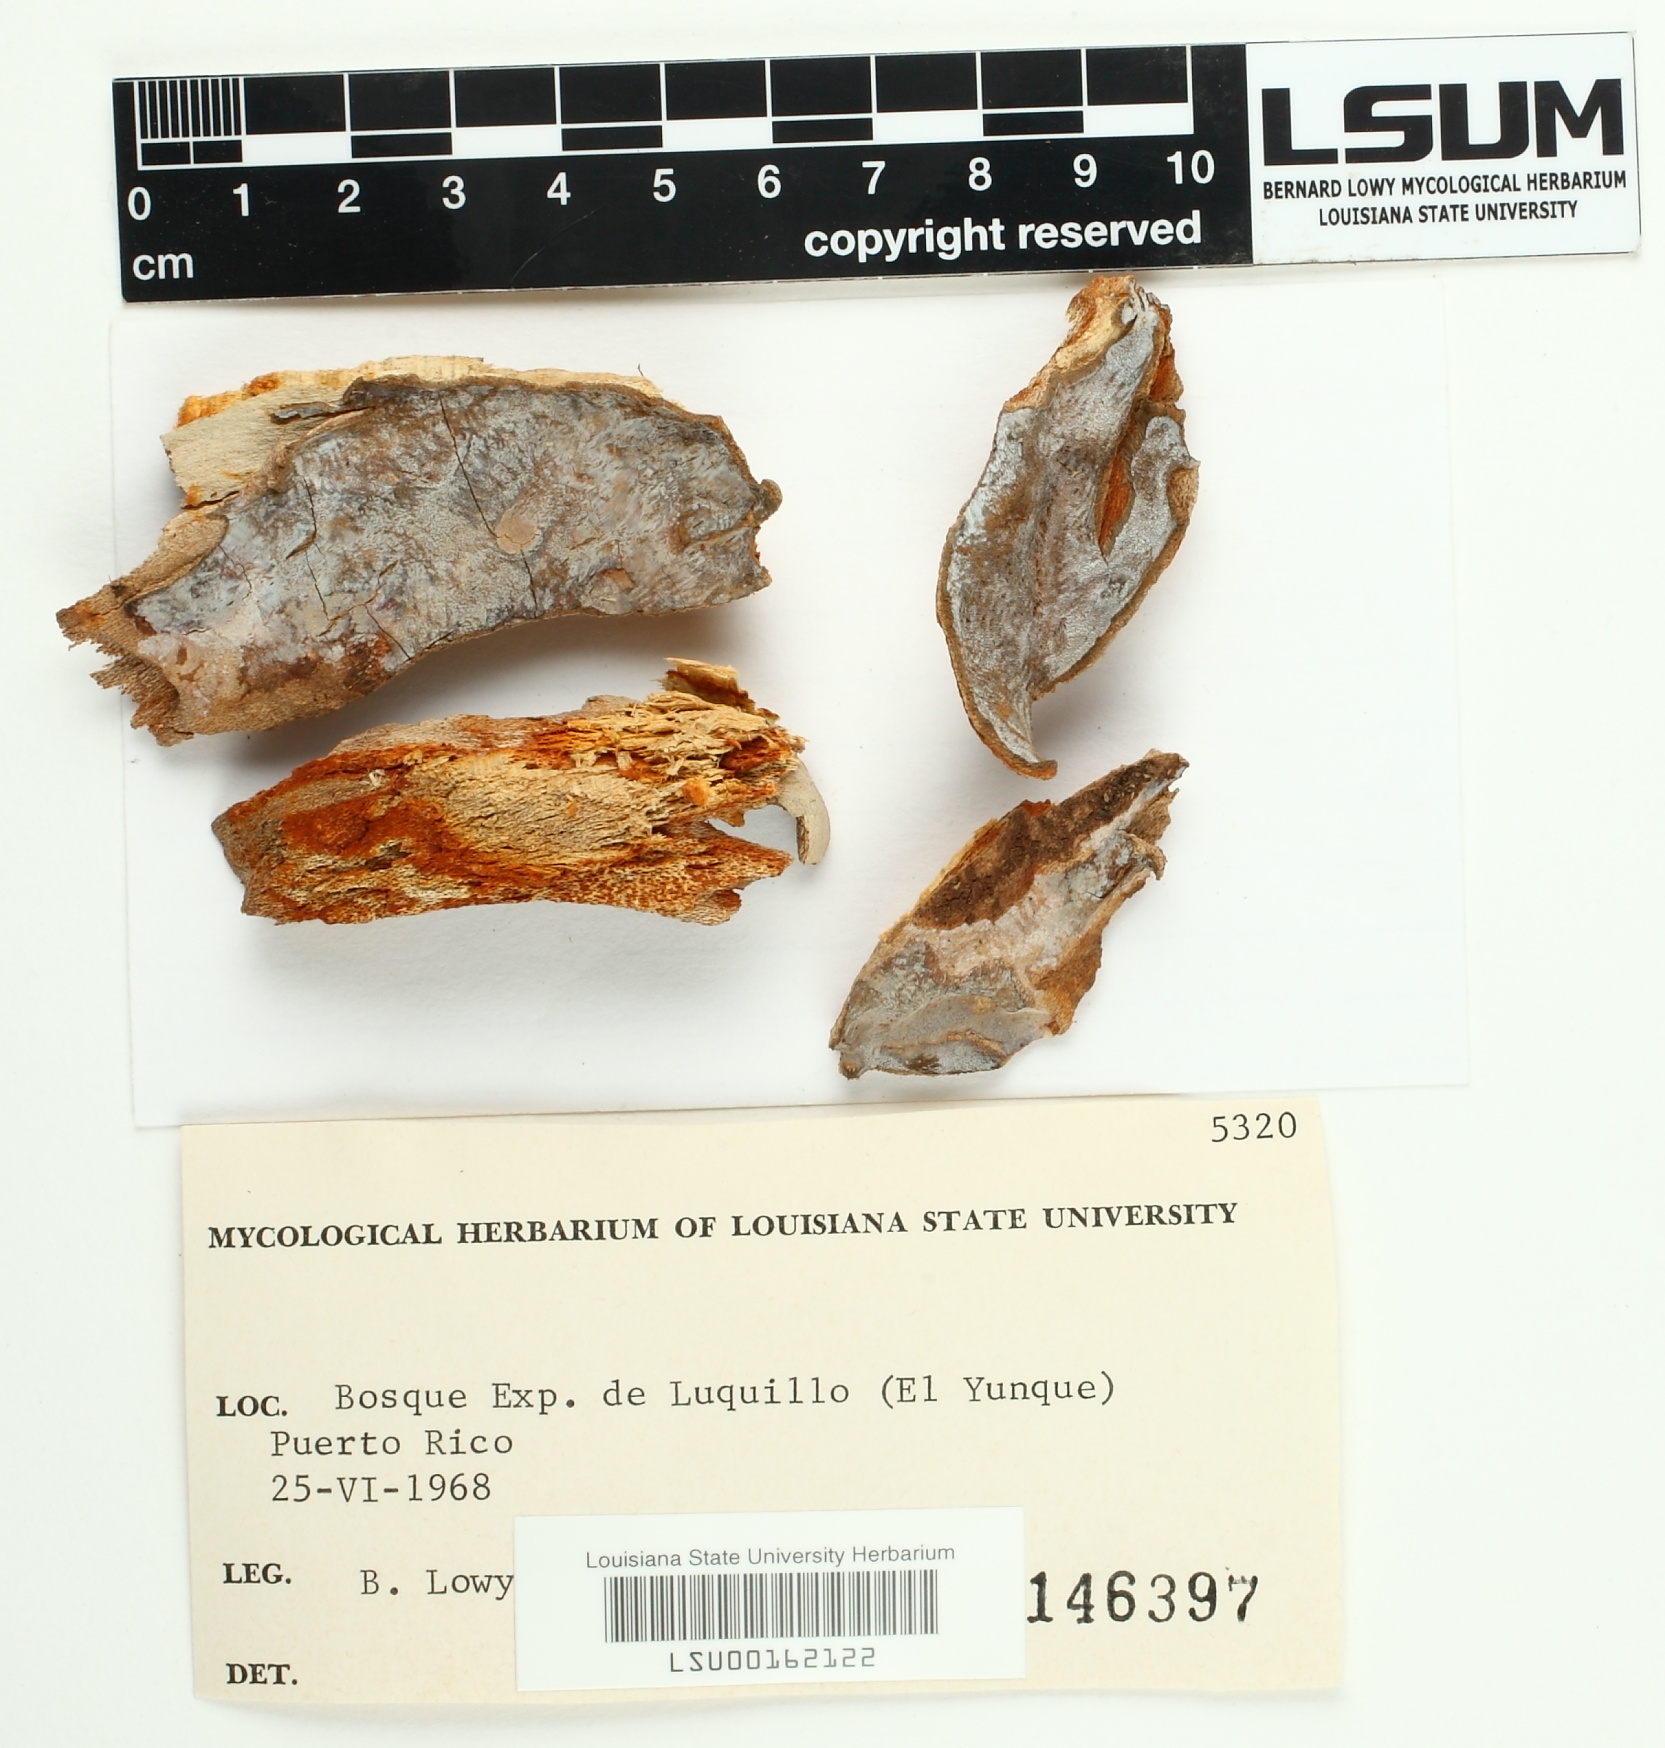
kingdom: Fungi
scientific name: Fungi
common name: Fungi
